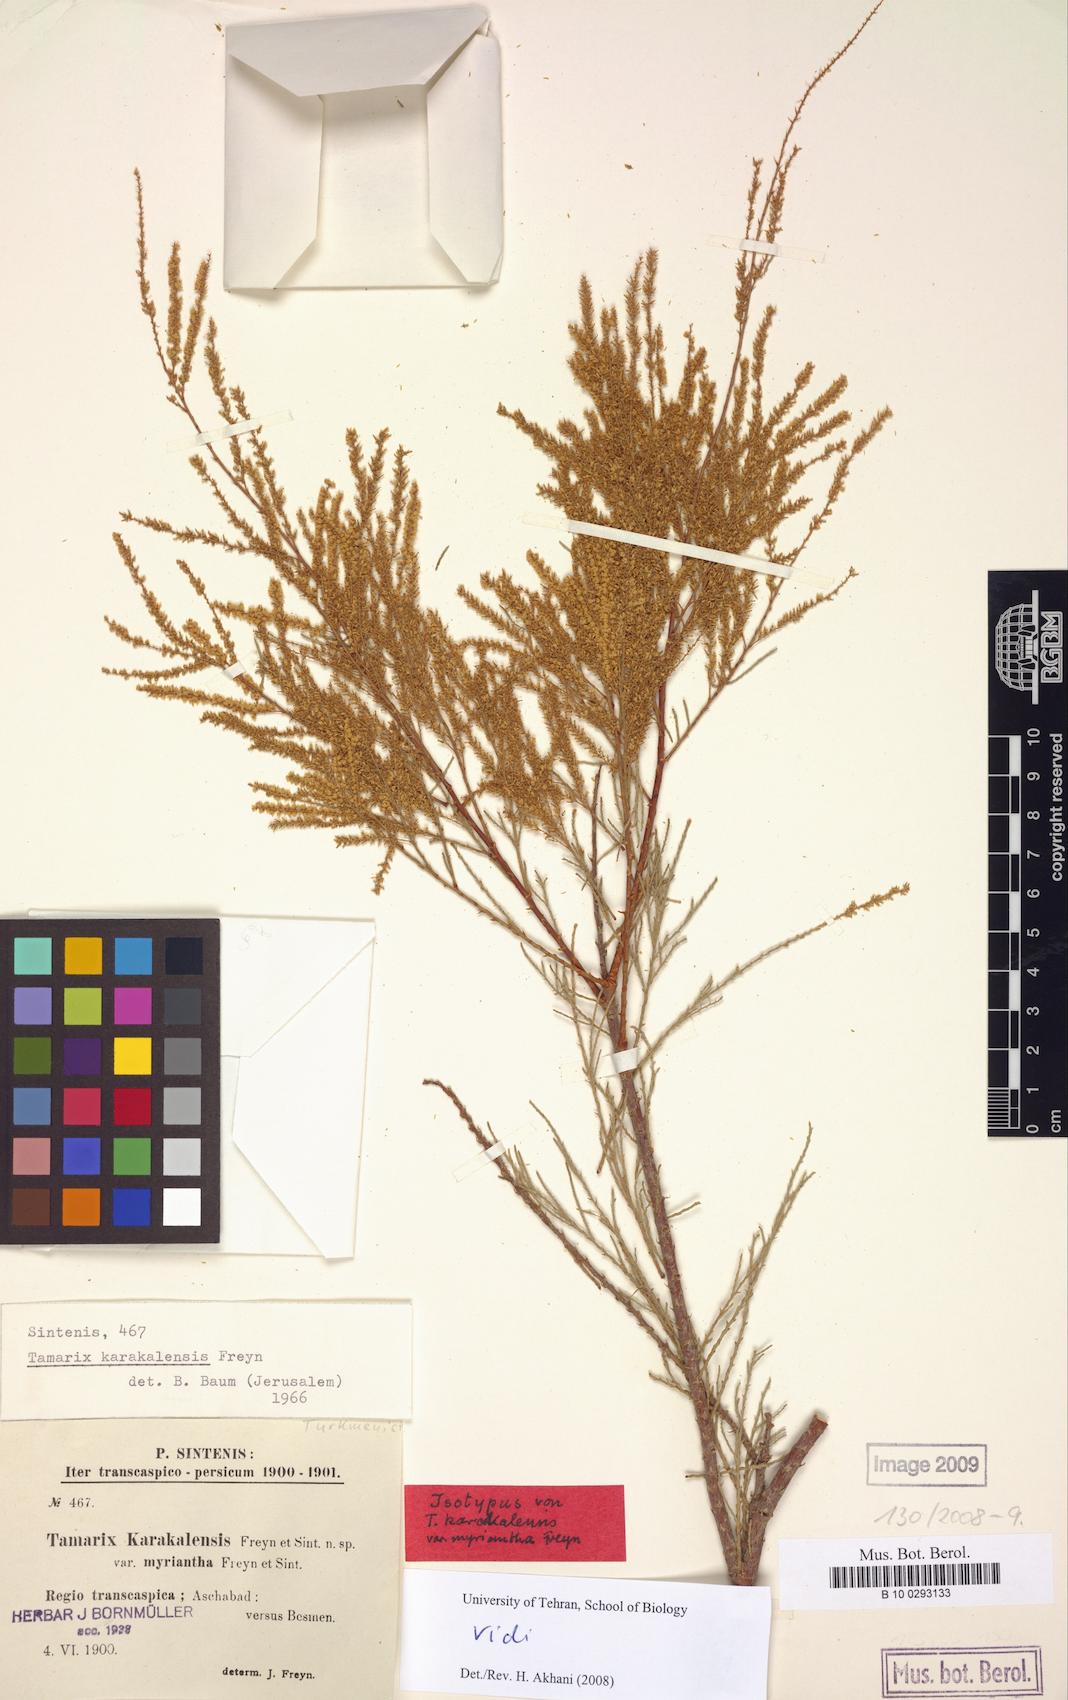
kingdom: Plantae
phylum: Tracheophyta
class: Magnoliopsida
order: Caryophyllales
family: Tamaricaceae
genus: Tamarix
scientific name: Tamarix florida
